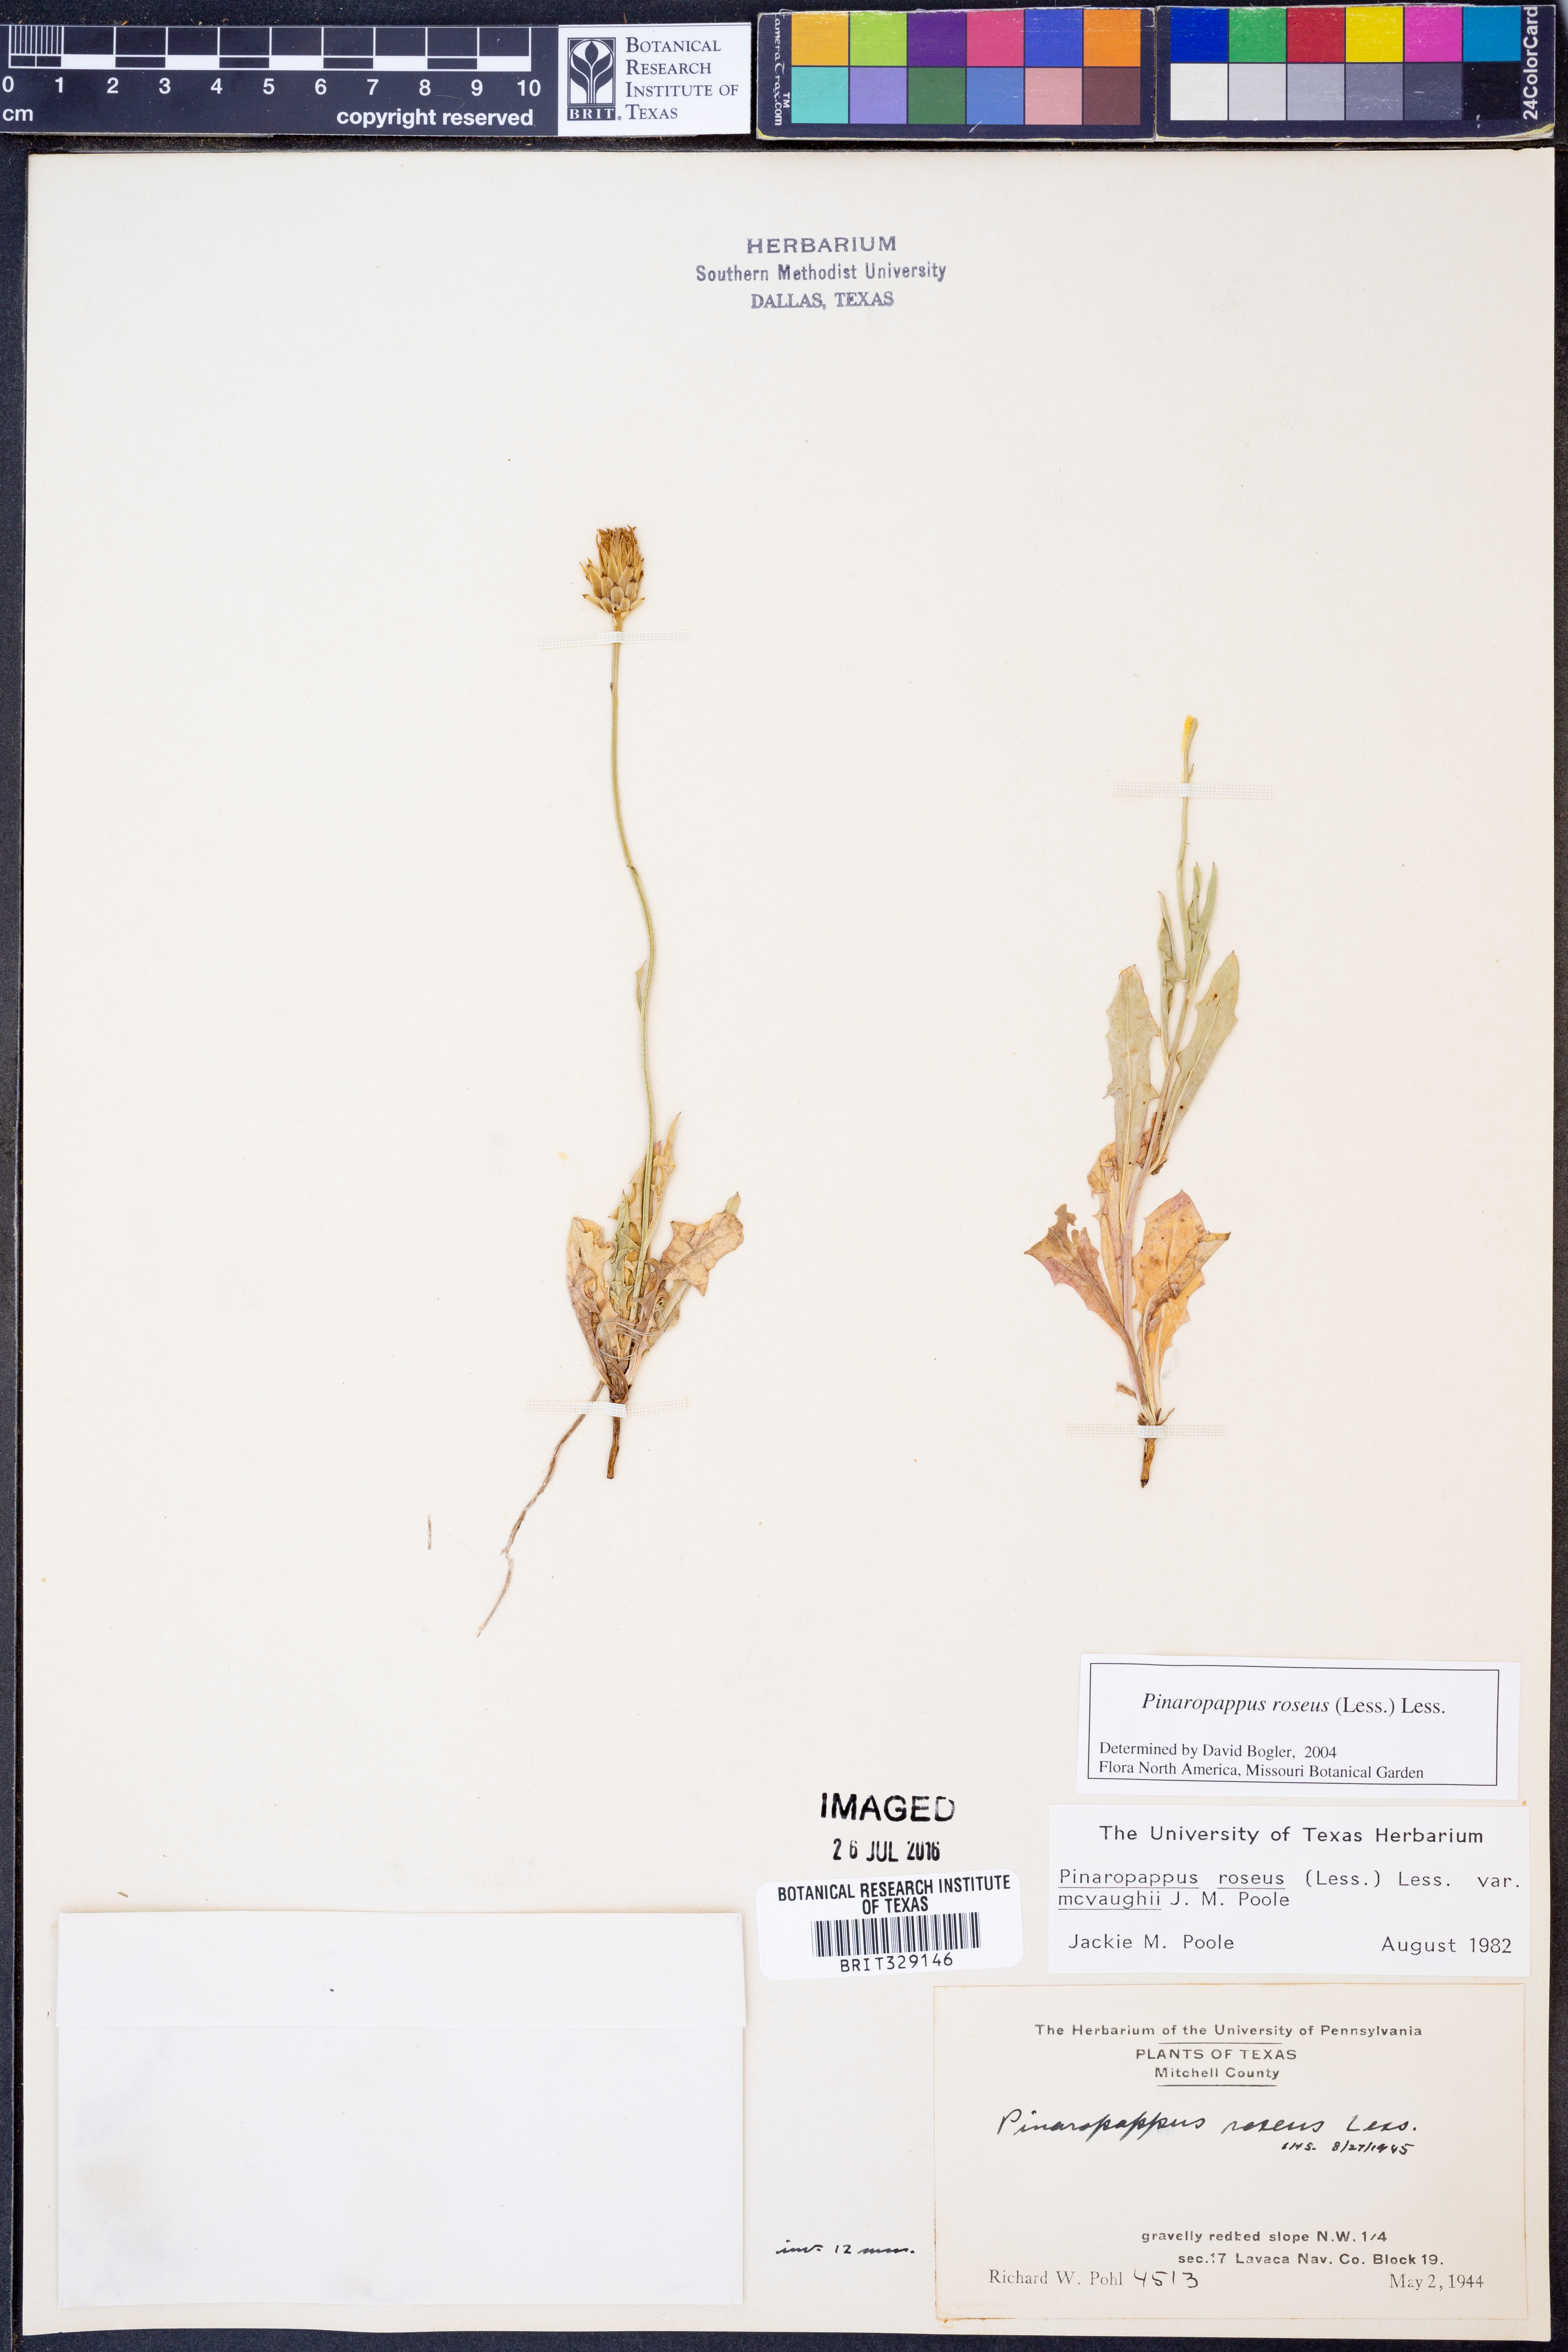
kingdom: Plantae
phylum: Tracheophyta
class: Magnoliopsida
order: Asterales
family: Asteraceae
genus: Pinaropappus
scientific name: Pinaropappus roseus
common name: Rock-lettuce
